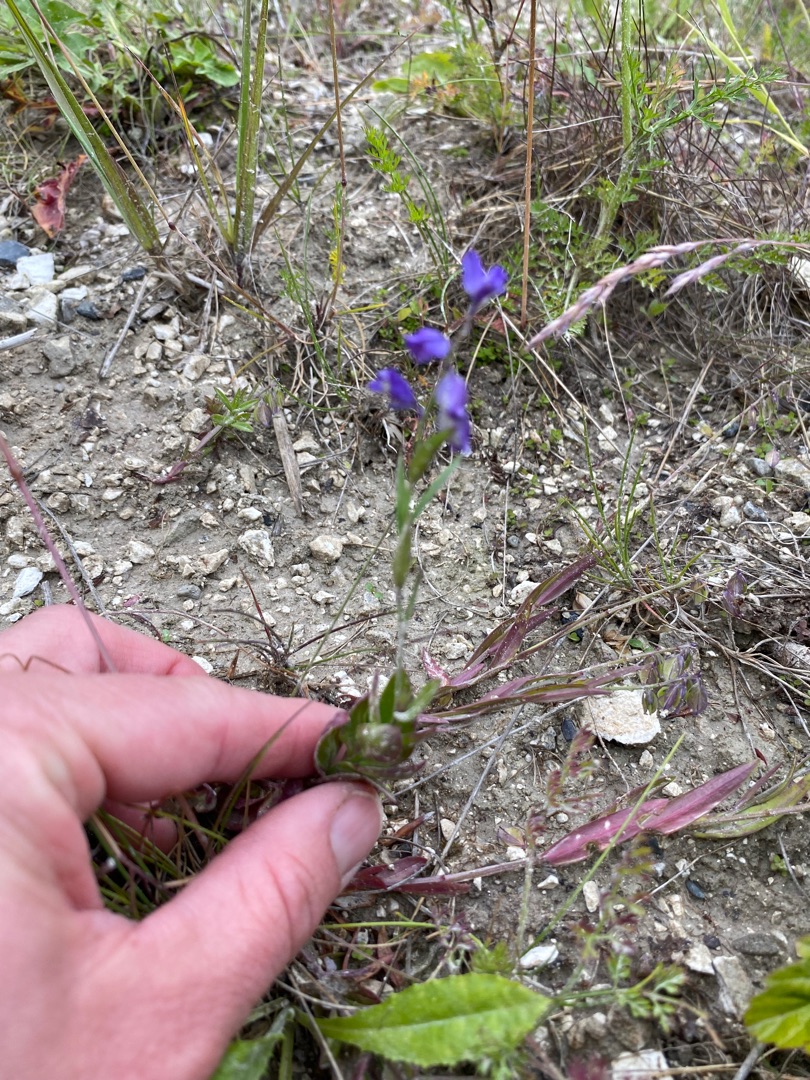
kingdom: Plantae
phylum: Tracheophyta
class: Magnoliopsida
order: Fabales
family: Polygalaceae
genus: Polygala
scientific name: Polygala vulgaris
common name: Almindelig mælkeurt
